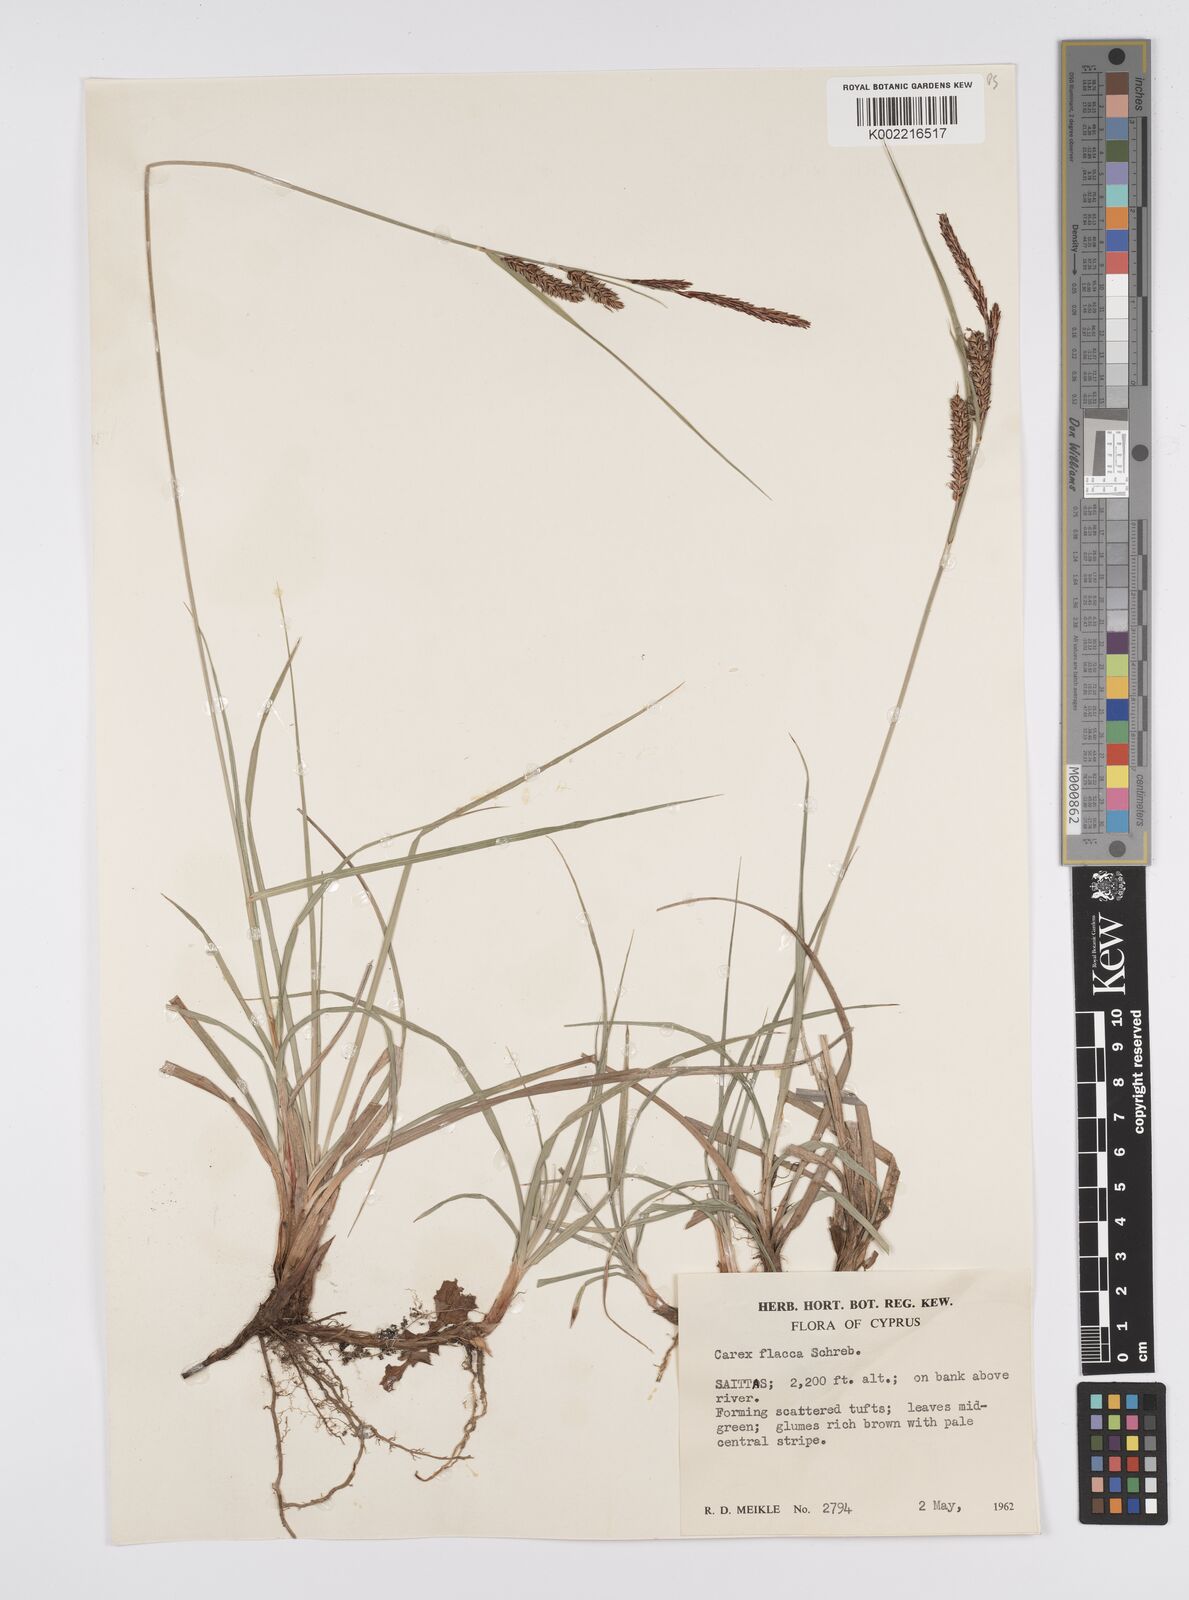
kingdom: Plantae
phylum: Tracheophyta
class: Liliopsida
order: Poales
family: Cyperaceae
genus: Carex
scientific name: Carex flacca
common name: Glaucous sedge
